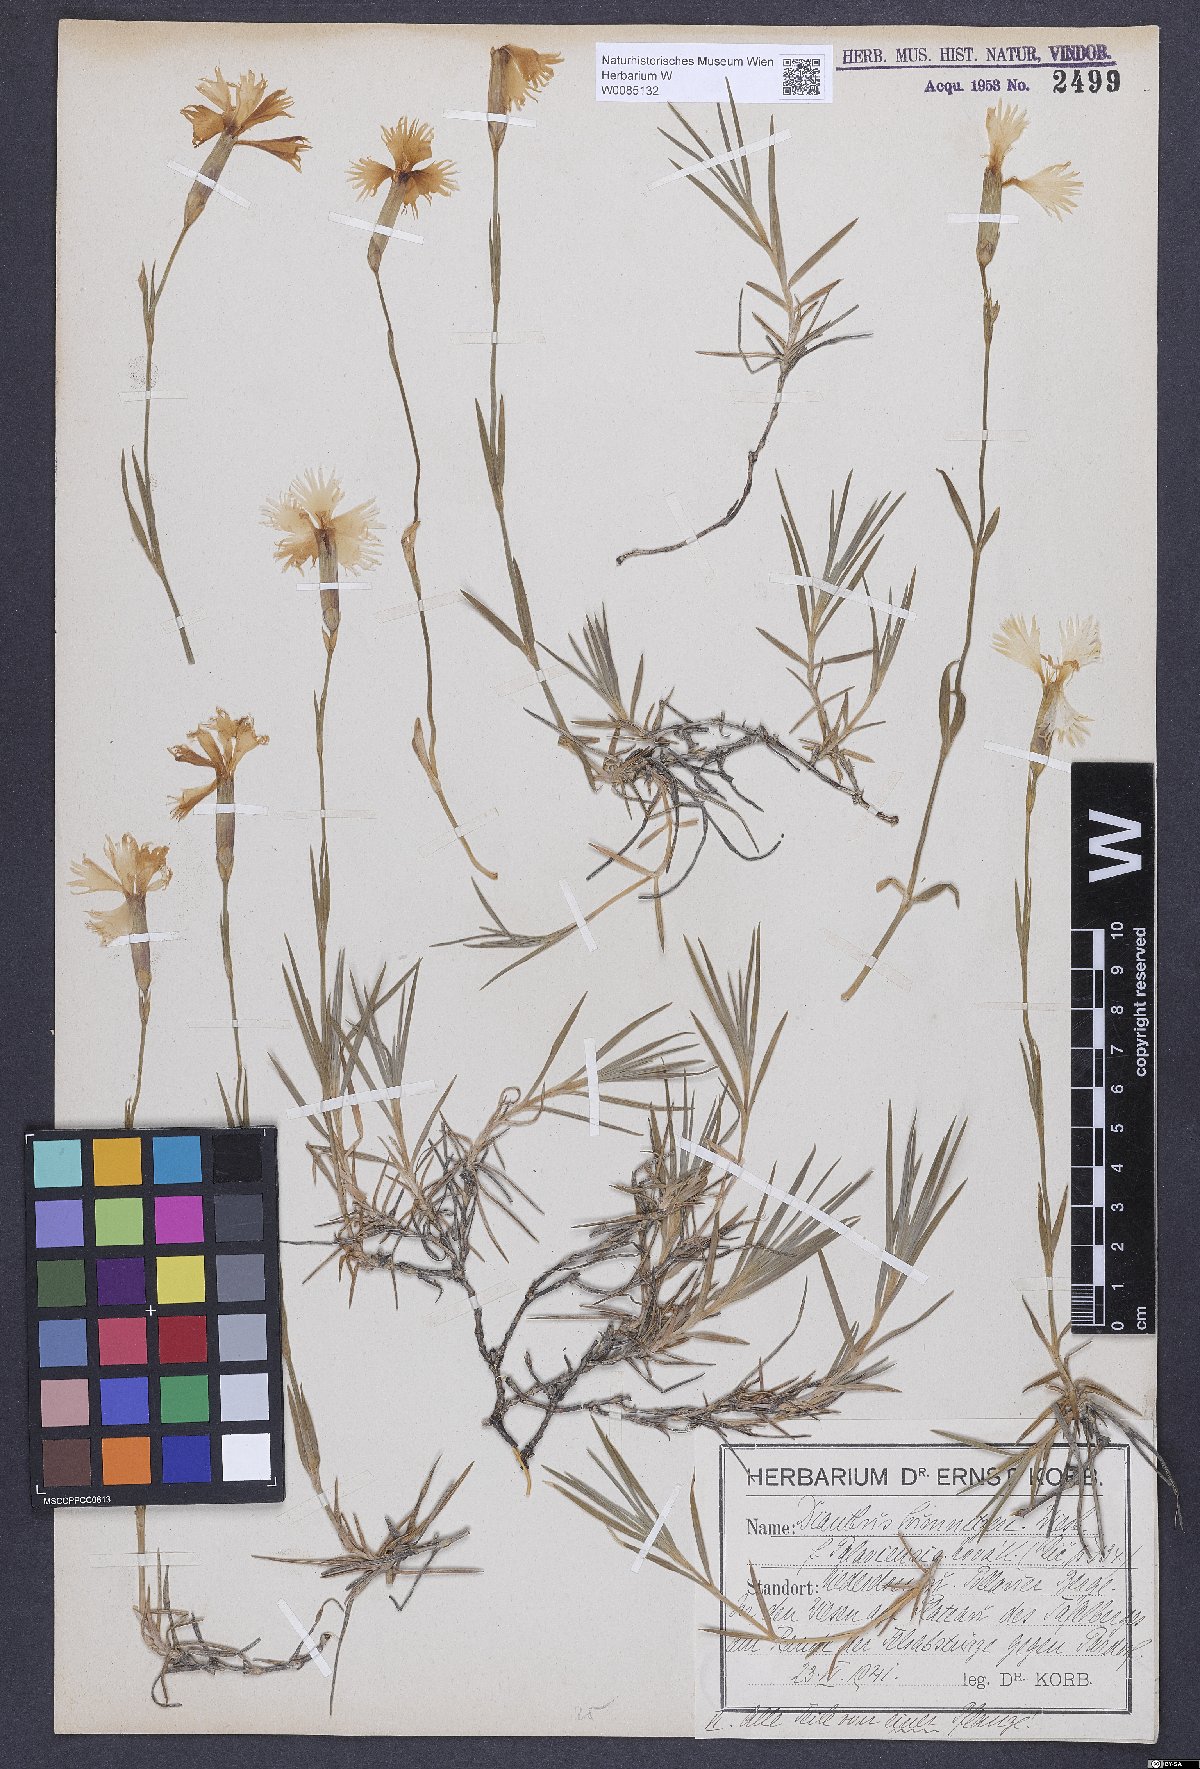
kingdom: Plantae
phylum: Tracheophyta
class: Magnoliopsida
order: Caryophyllales
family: Caryophyllaceae
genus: Dianthus
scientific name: Dianthus praecox
